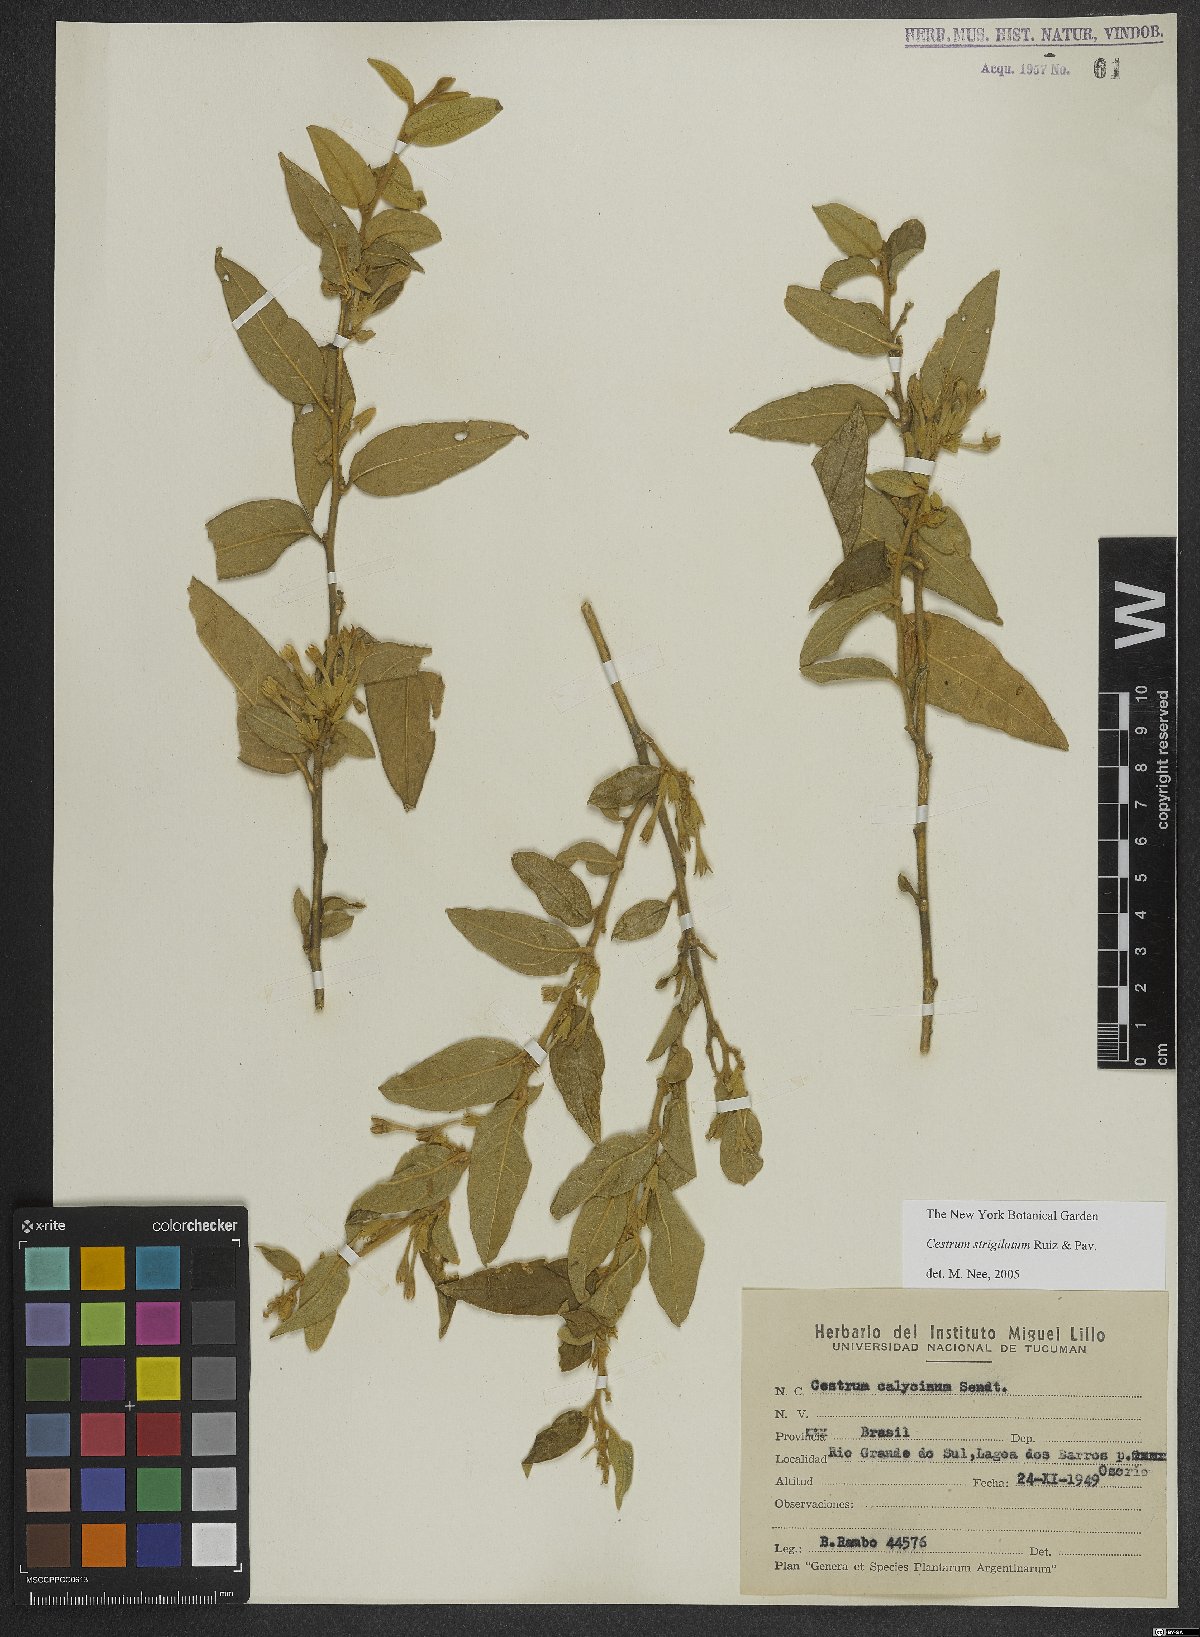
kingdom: Plantae
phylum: Tracheophyta
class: Magnoliopsida
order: Solanales
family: Solanaceae
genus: Cestrum
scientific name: Cestrum strigillatum
